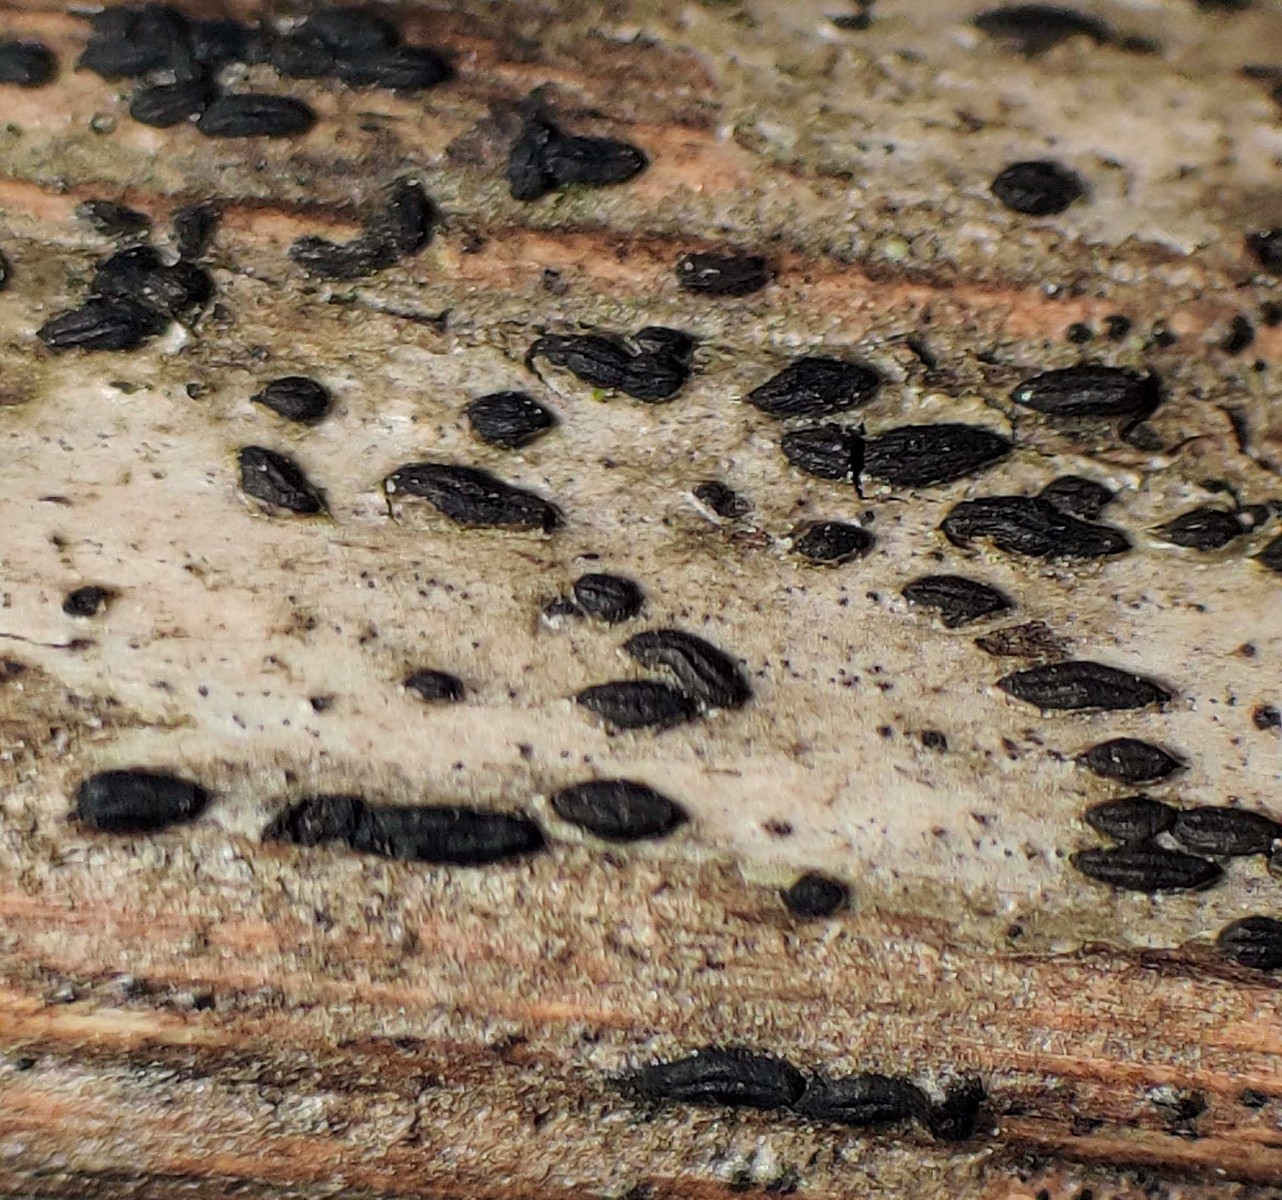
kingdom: Fungi
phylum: Ascomycota
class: Dothideomycetes
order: Hysteriales
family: Hysteriaceae
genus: Hysterobrevium
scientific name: Hysterobrevium smilacis
